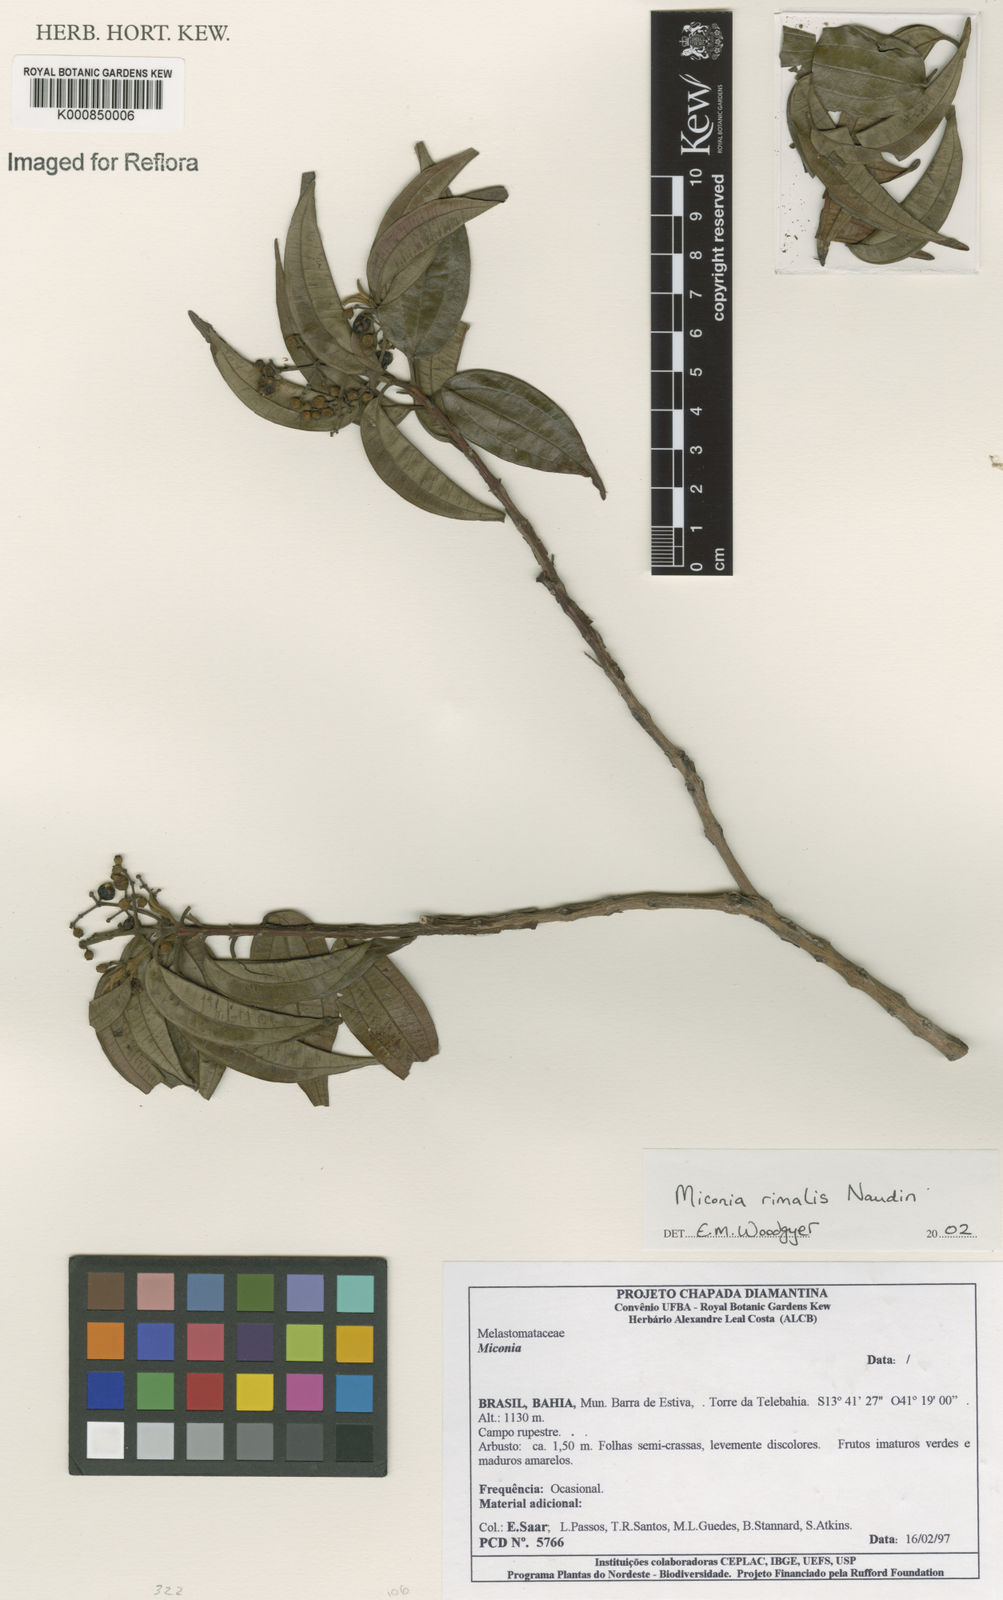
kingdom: Plantae
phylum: Tracheophyta
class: Magnoliopsida
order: Myrtales
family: Melastomataceae
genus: Miconia
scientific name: Miconia
